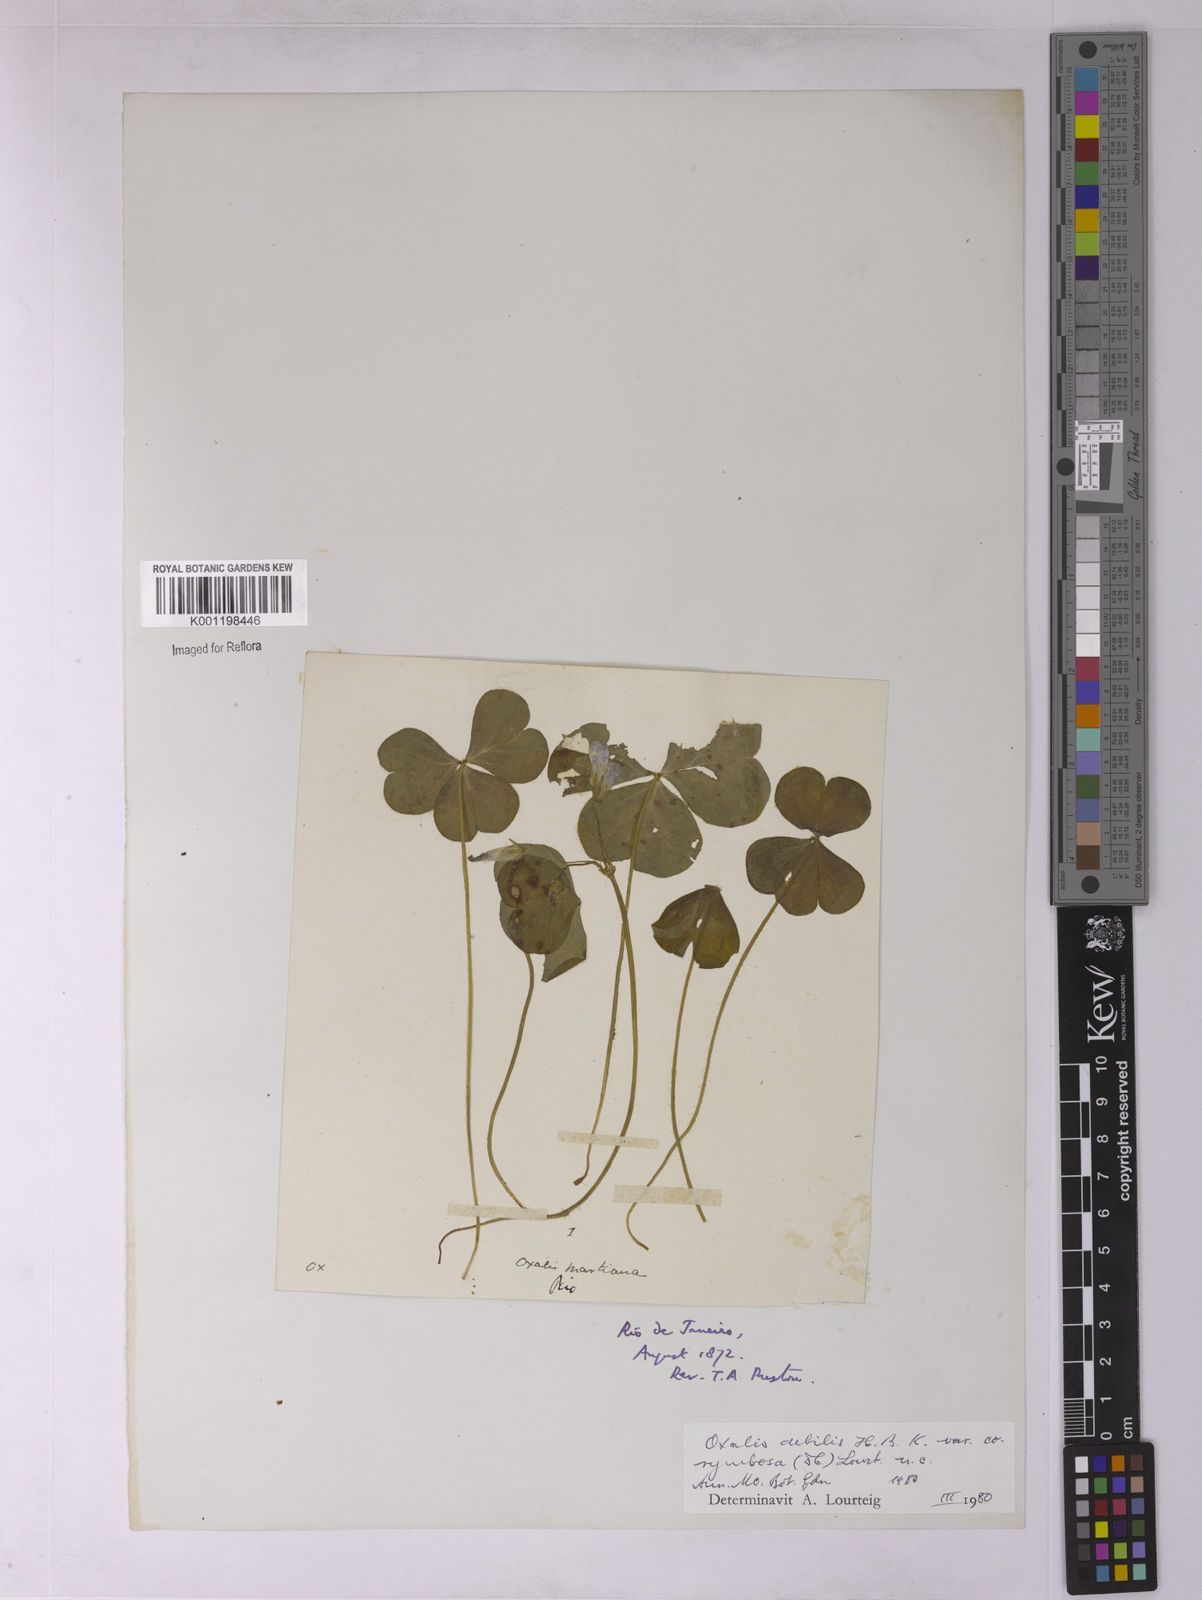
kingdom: Plantae
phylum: Tracheophyta
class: Magnoliopsida
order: Oxalidales
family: Oxalidaceae
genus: Oxalis
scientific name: Oxalis debilis
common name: Large-flowered pink-sorrel
